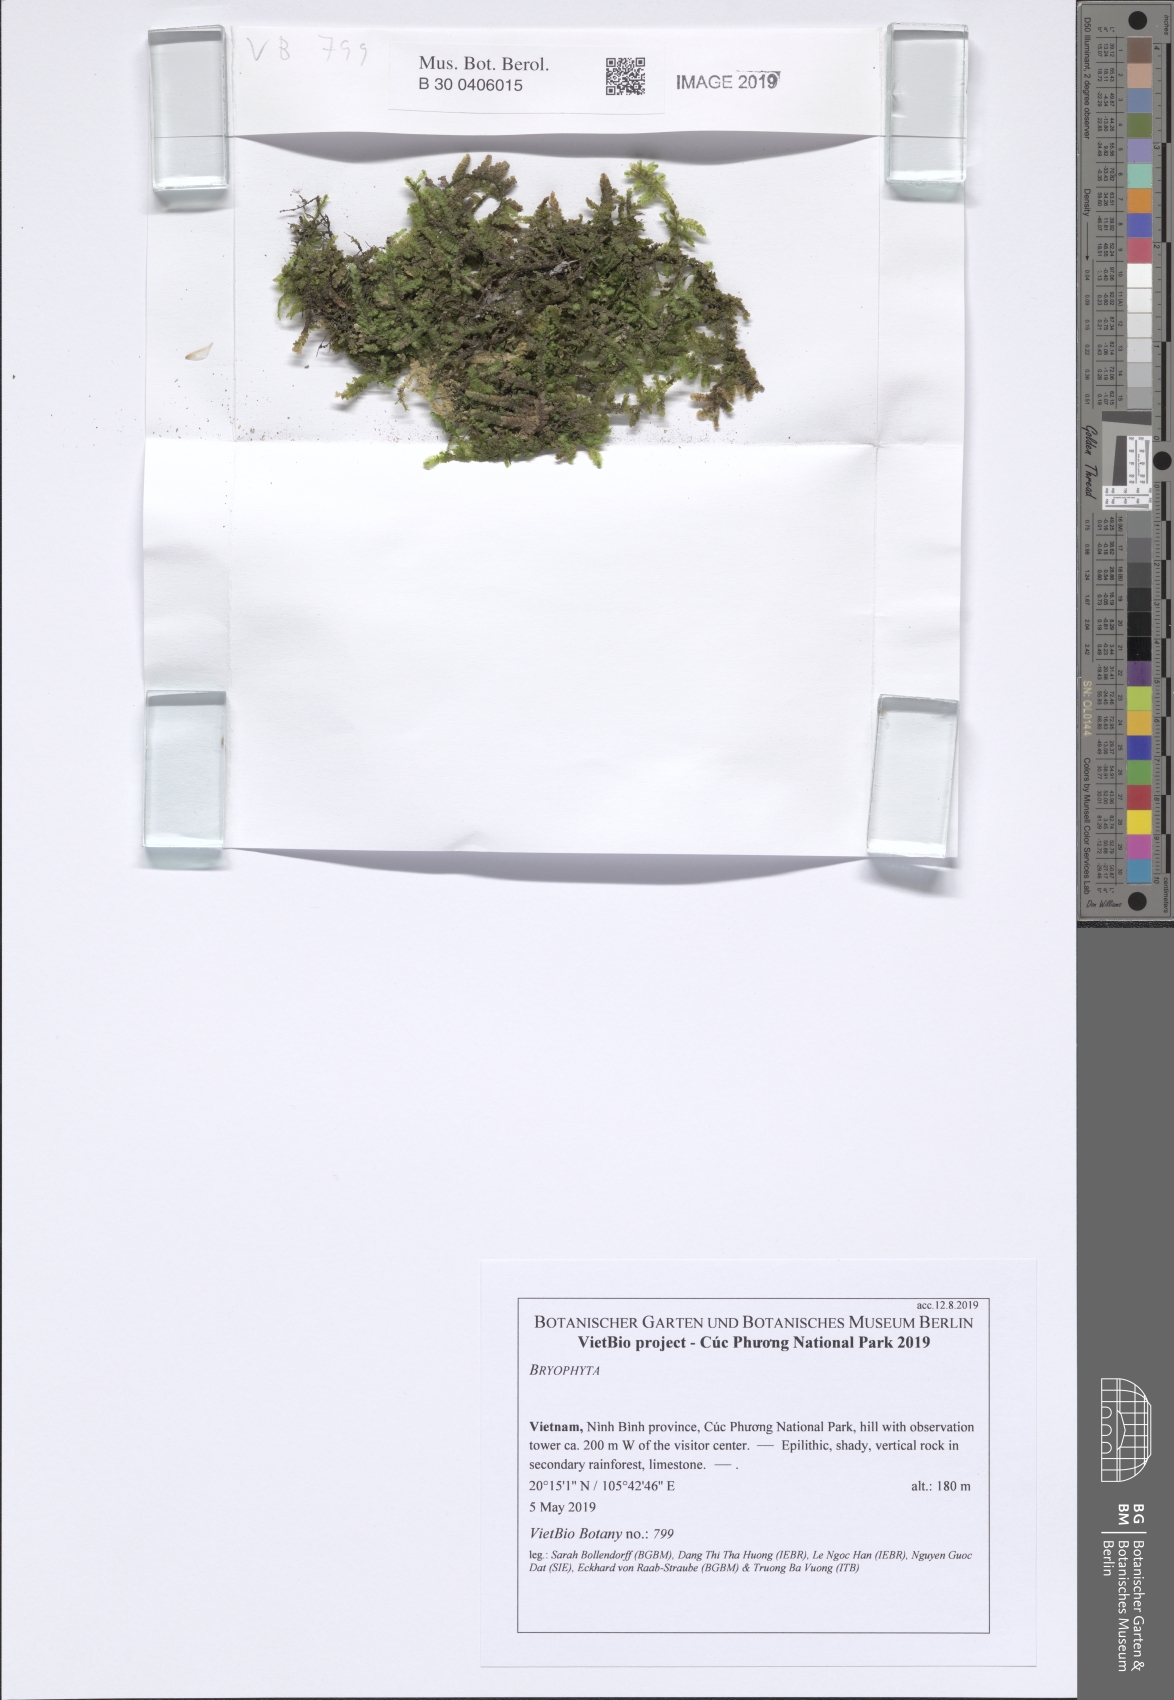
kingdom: Plantae
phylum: Bryophyta
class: Bryopsida
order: Hypnales
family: Neckeraceae
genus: Neckeromnion
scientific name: Neckeromnion lepineanum
